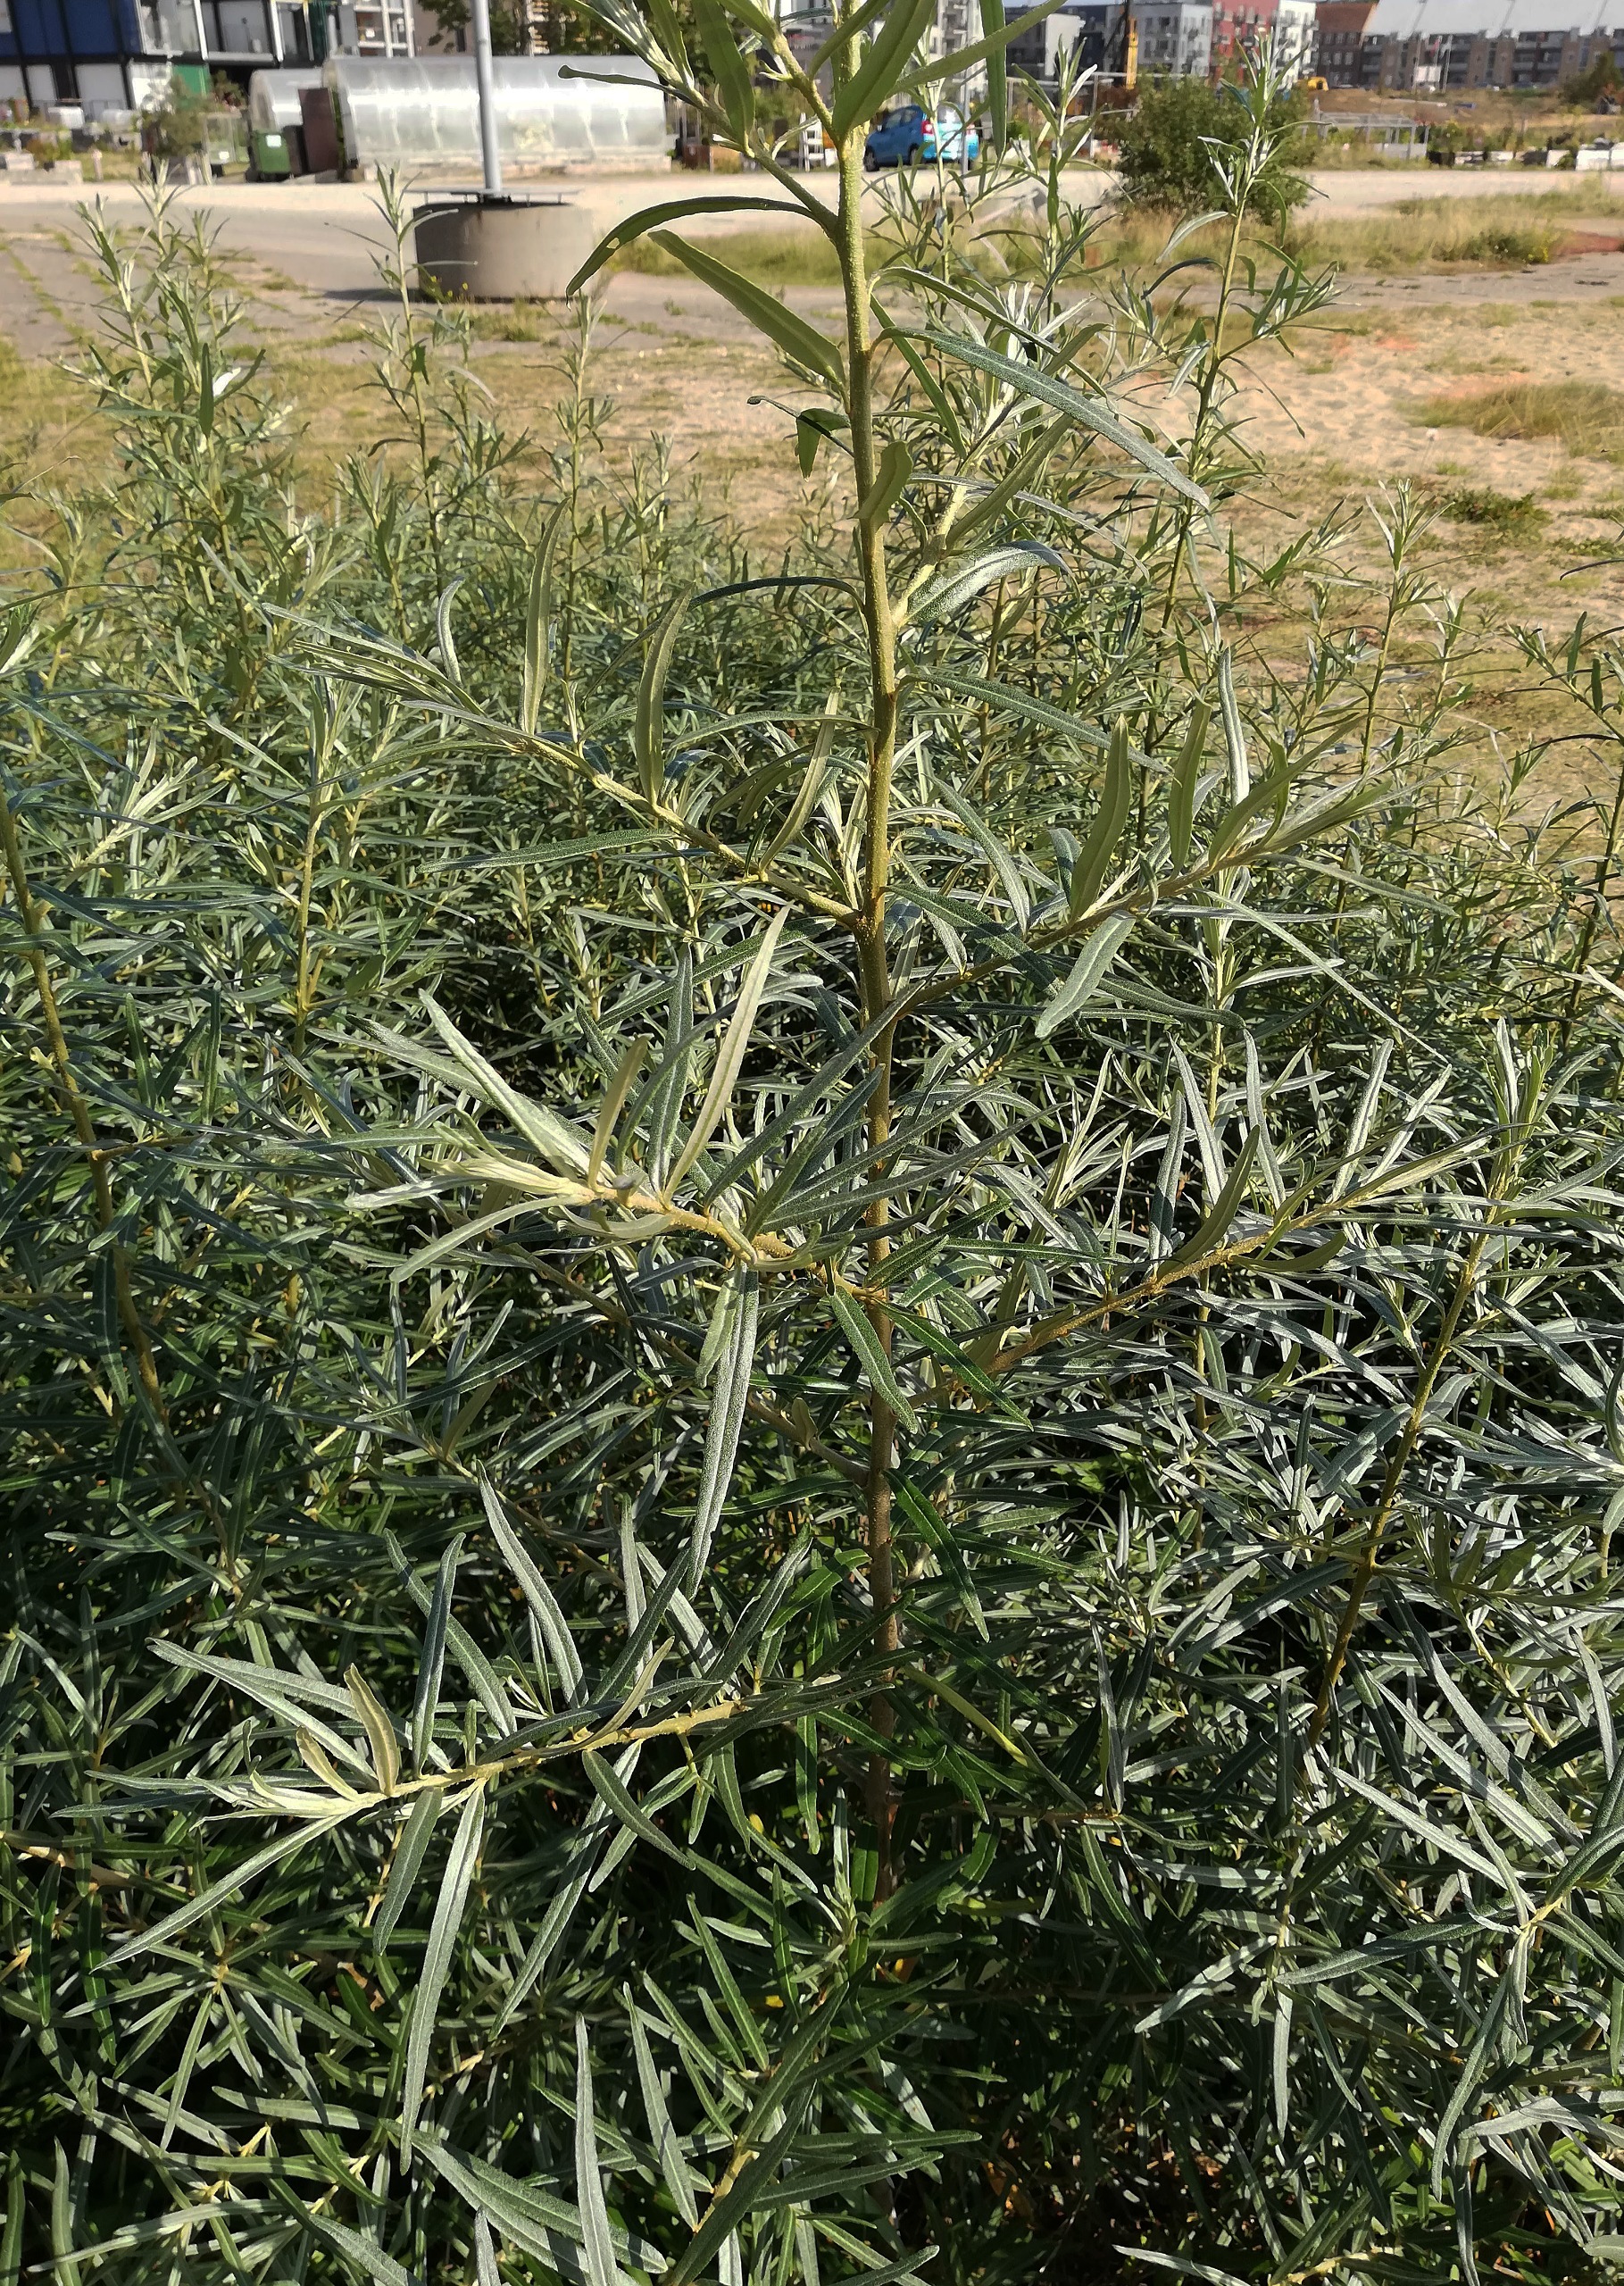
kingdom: Plantae
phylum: Tracheophyta
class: Magnoliopsida
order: Rosales
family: Elaeagnaceae
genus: Hippophae
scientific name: Hippophae rhamnoides
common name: Havtorn
